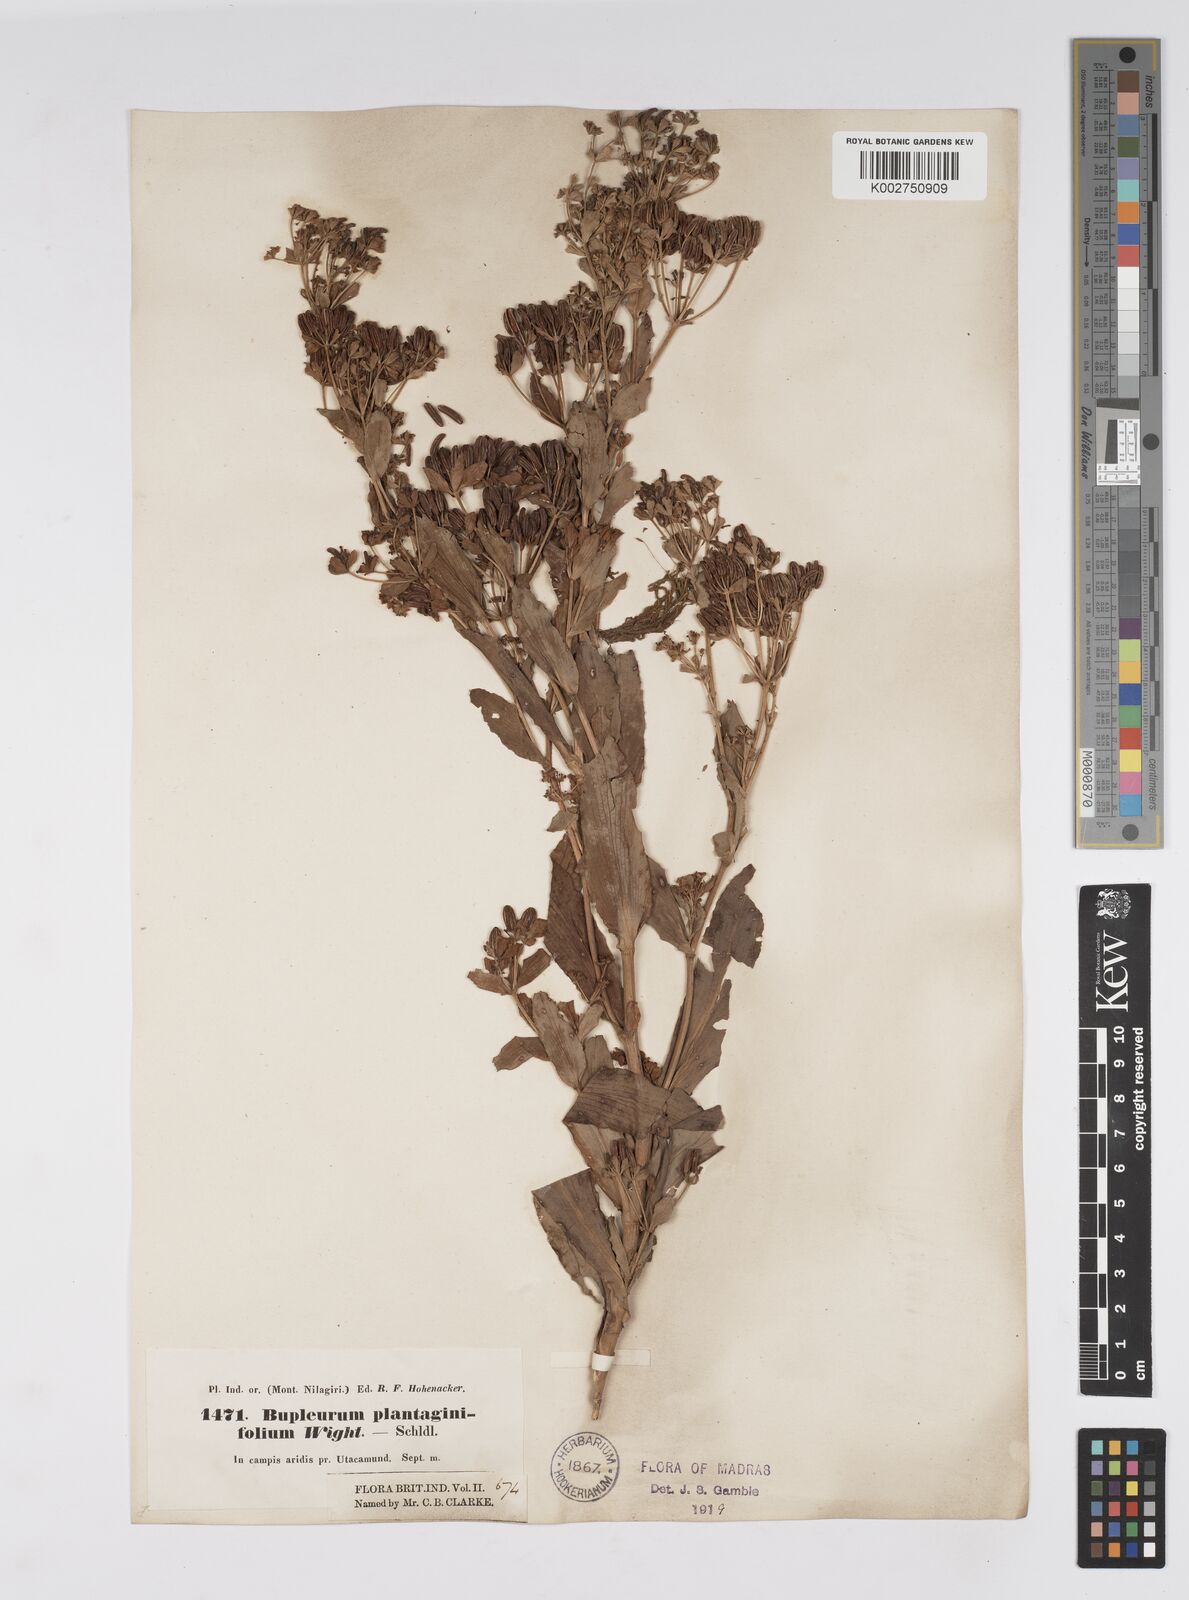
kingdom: Plantae
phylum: Tracheophyta
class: Magnoliopsida
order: Apiales
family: Apiaceae
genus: Bupleurum
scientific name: Bupleurum plantaginifolium
